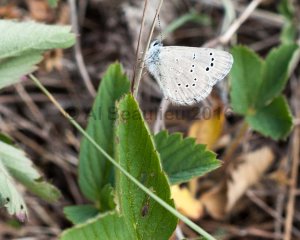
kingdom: Animalia
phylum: Arthropoda
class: Insecta
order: Lepidoptera
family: Lycaenidae
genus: Glaucopsyche
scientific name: Glaucopsyche lygdamus
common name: Silvery Blue
